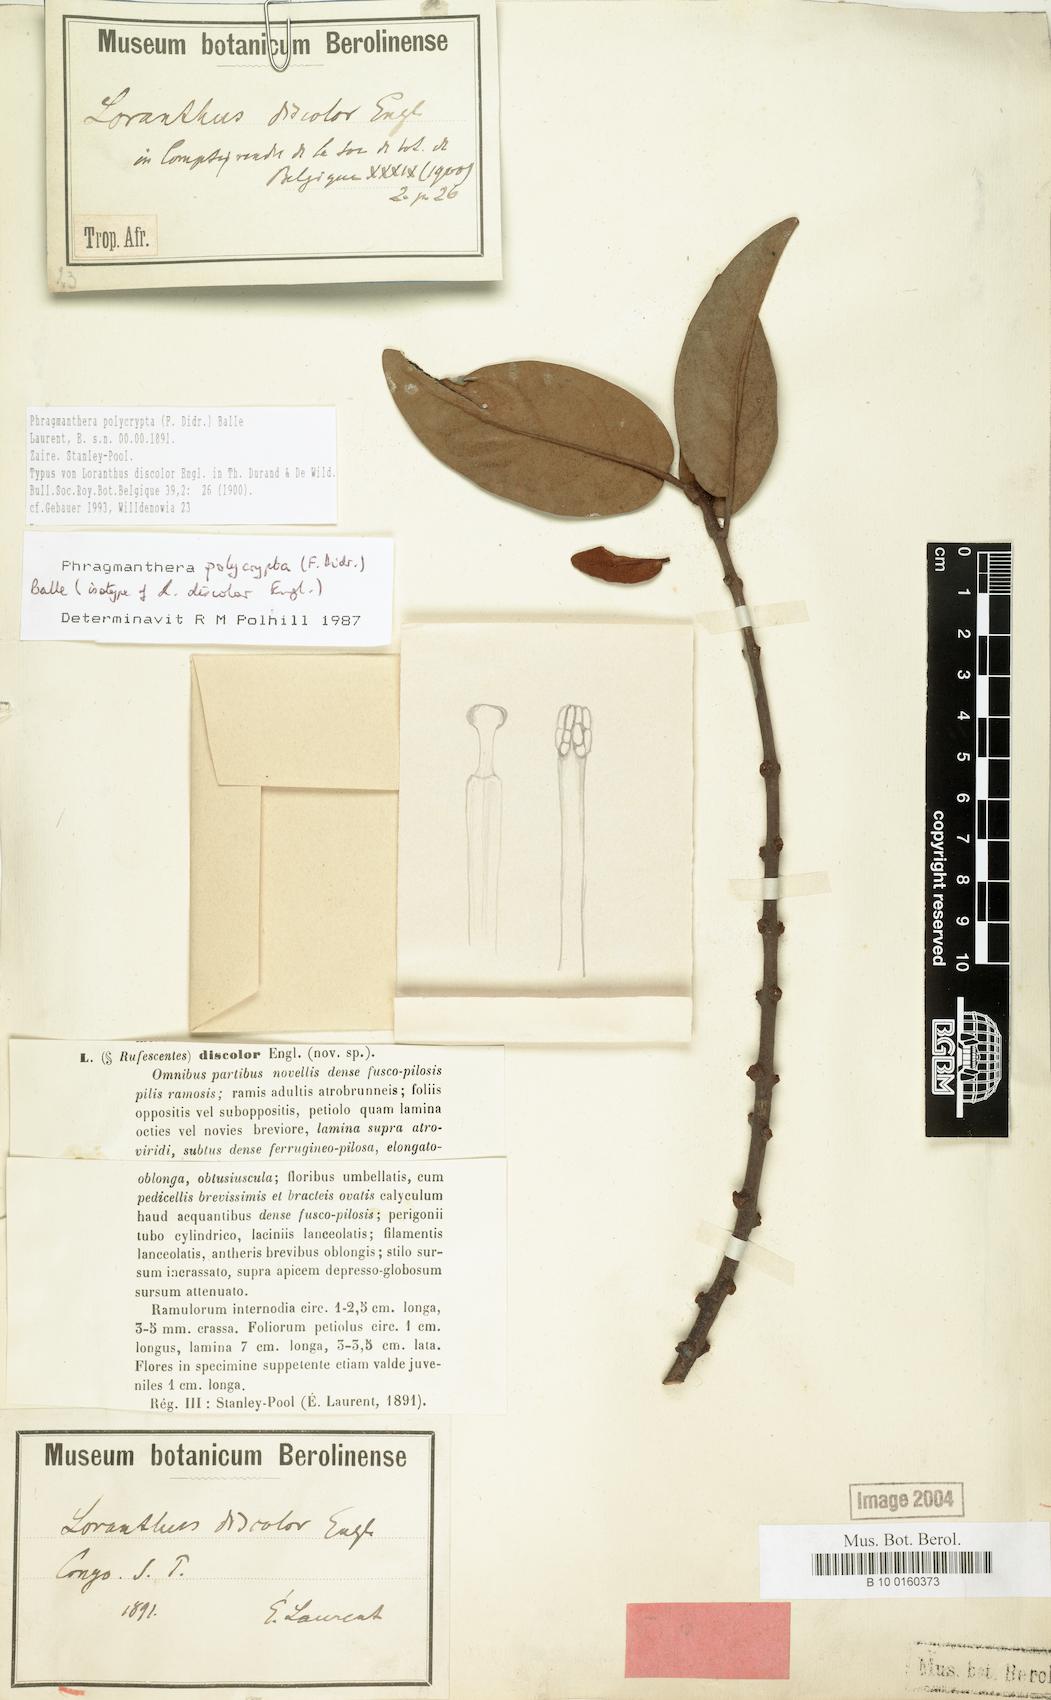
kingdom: Plantae
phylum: Tracheophyta
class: Magnoliopsida
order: Santalales
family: Loranthaceae
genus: Phragmanthera
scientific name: Phragmanthera polycrypta
